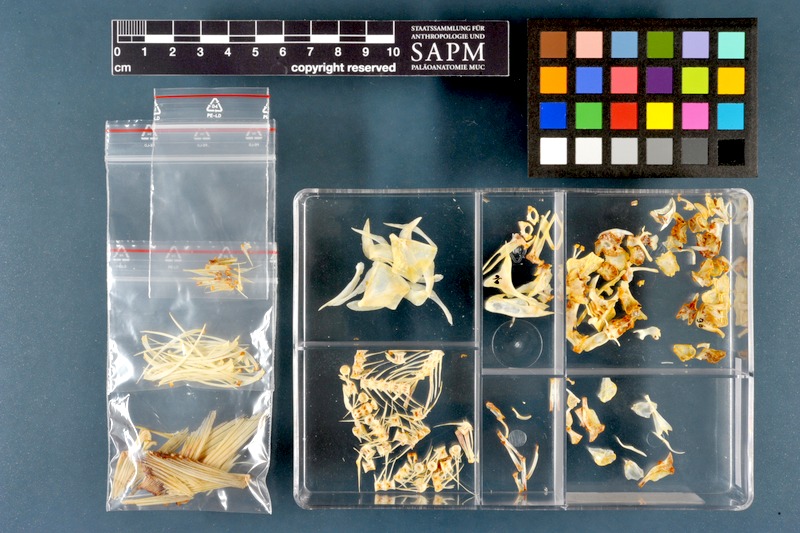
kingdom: Animalia
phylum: Chordata
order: Cypriniformes
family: Cyprinidae
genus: Chondrostoma
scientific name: Chondrostoma regium
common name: Mesopotamian nase
